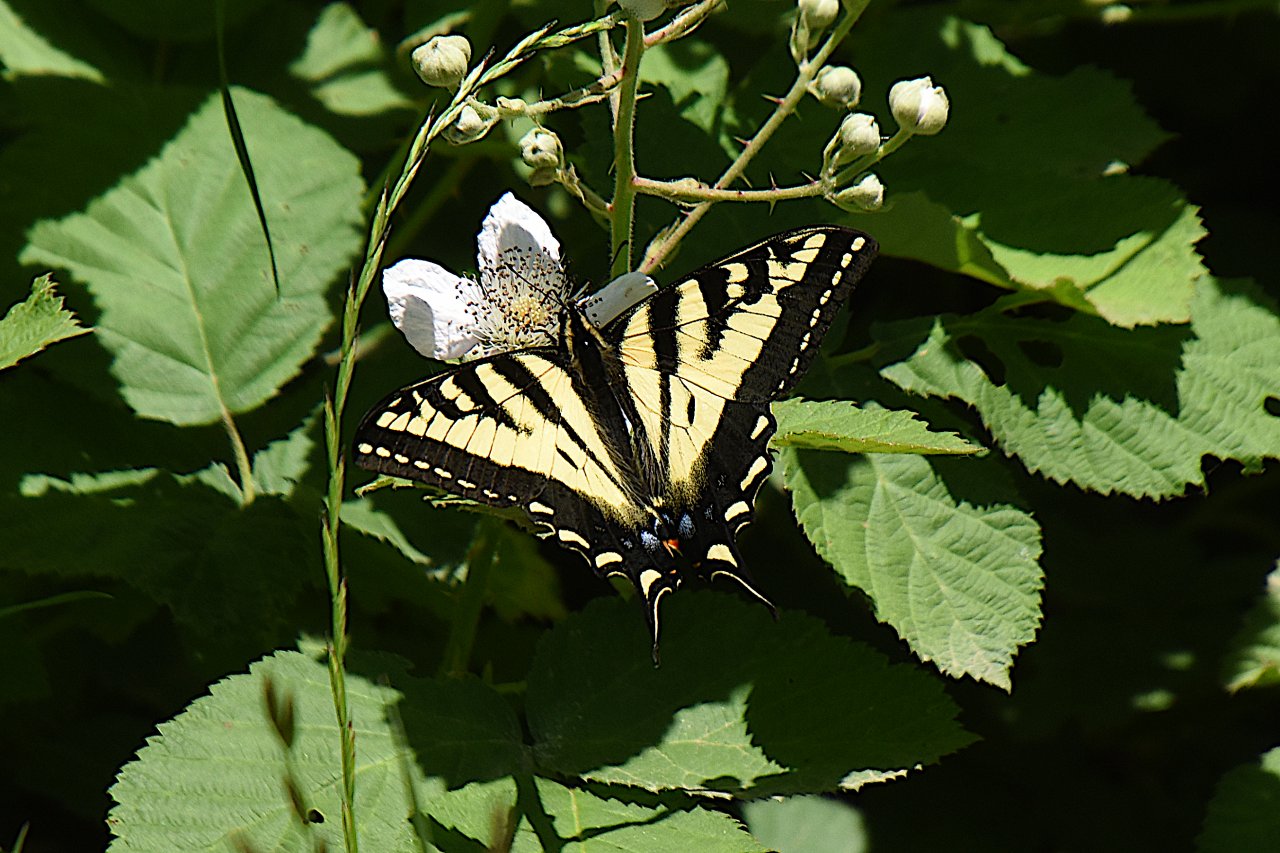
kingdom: Animalia
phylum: Arthropoda
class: Insecta
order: Lepidoptera
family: Papilionidae
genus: Pterourus
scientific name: Pterourus rutulus
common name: Western Tiger Swallowtail
